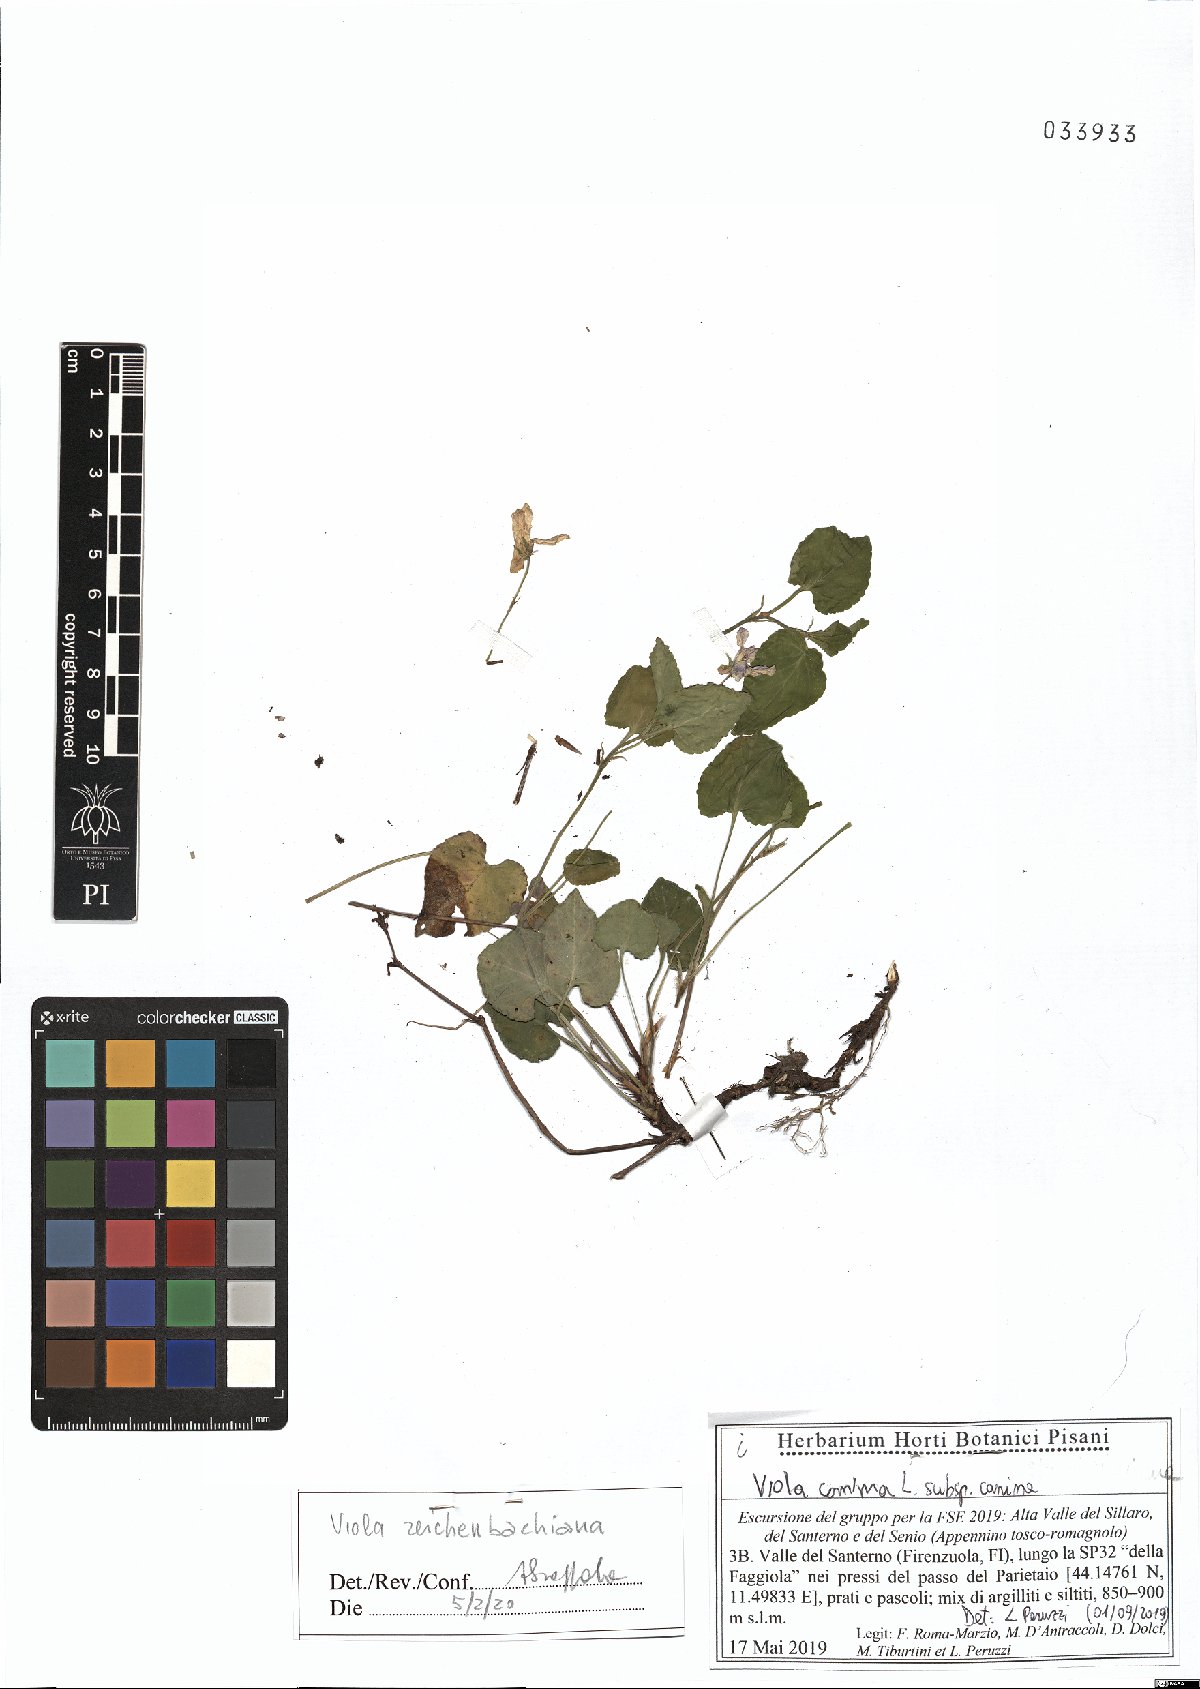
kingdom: Plantae
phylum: Tracheophyta
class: Magnoliopsida
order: Malpighiales
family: Violaceae
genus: Viola
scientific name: Viola reichenbachiana
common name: Early dog-violet
